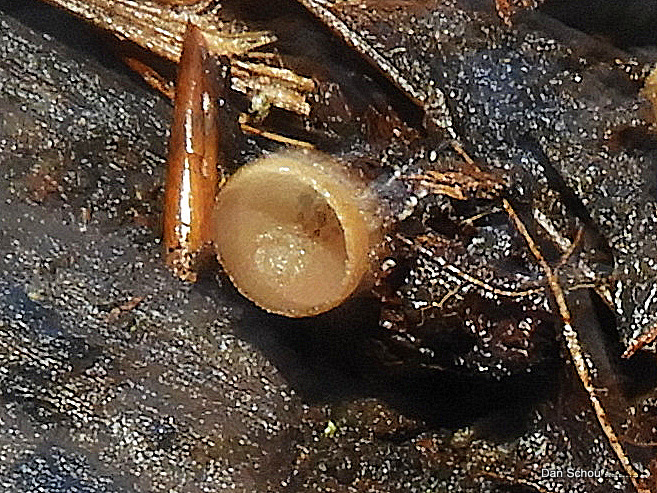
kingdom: Fungi
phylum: Ascomycota
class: Leotiomycetes
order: Helotiales
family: Sclerotiniaceae
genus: Ciboria
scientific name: Ciboria
